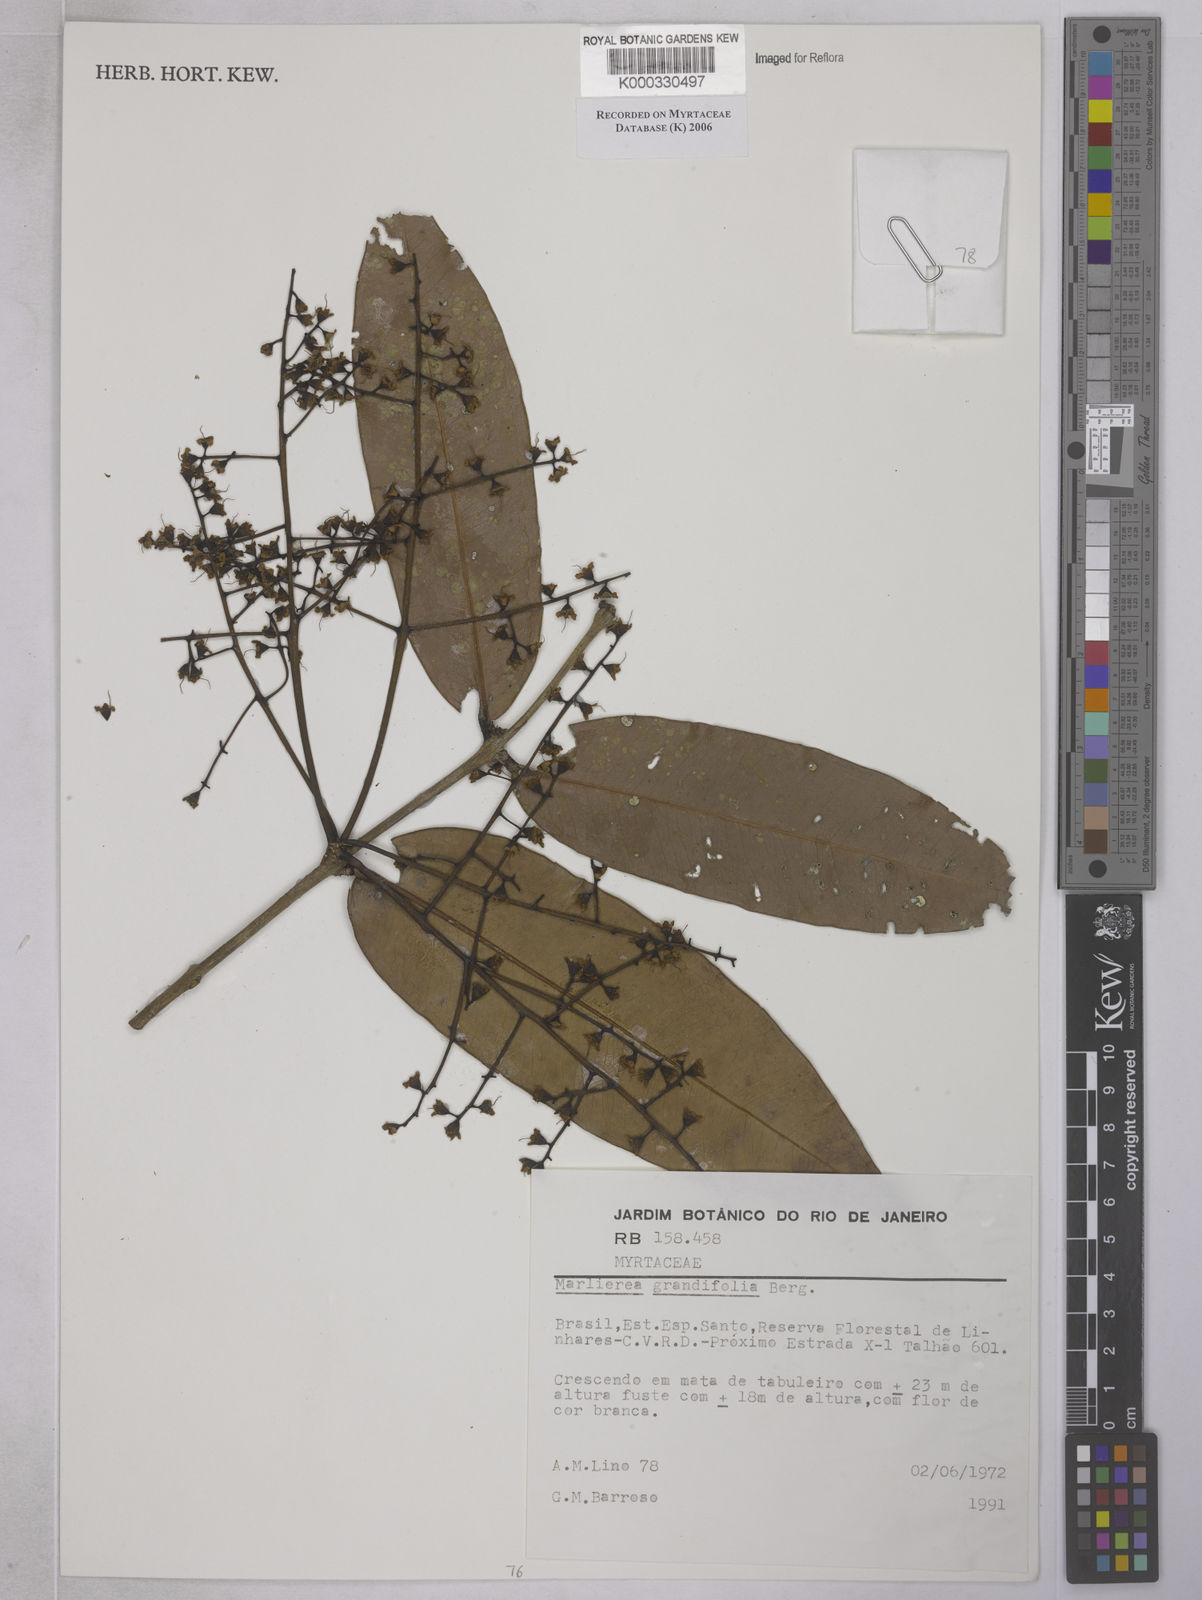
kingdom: Plantae
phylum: Tracheophyta
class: Magnoliopsida
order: Myrtales
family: Myrtaceae
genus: Myrcia
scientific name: Myrcia neoglabra
